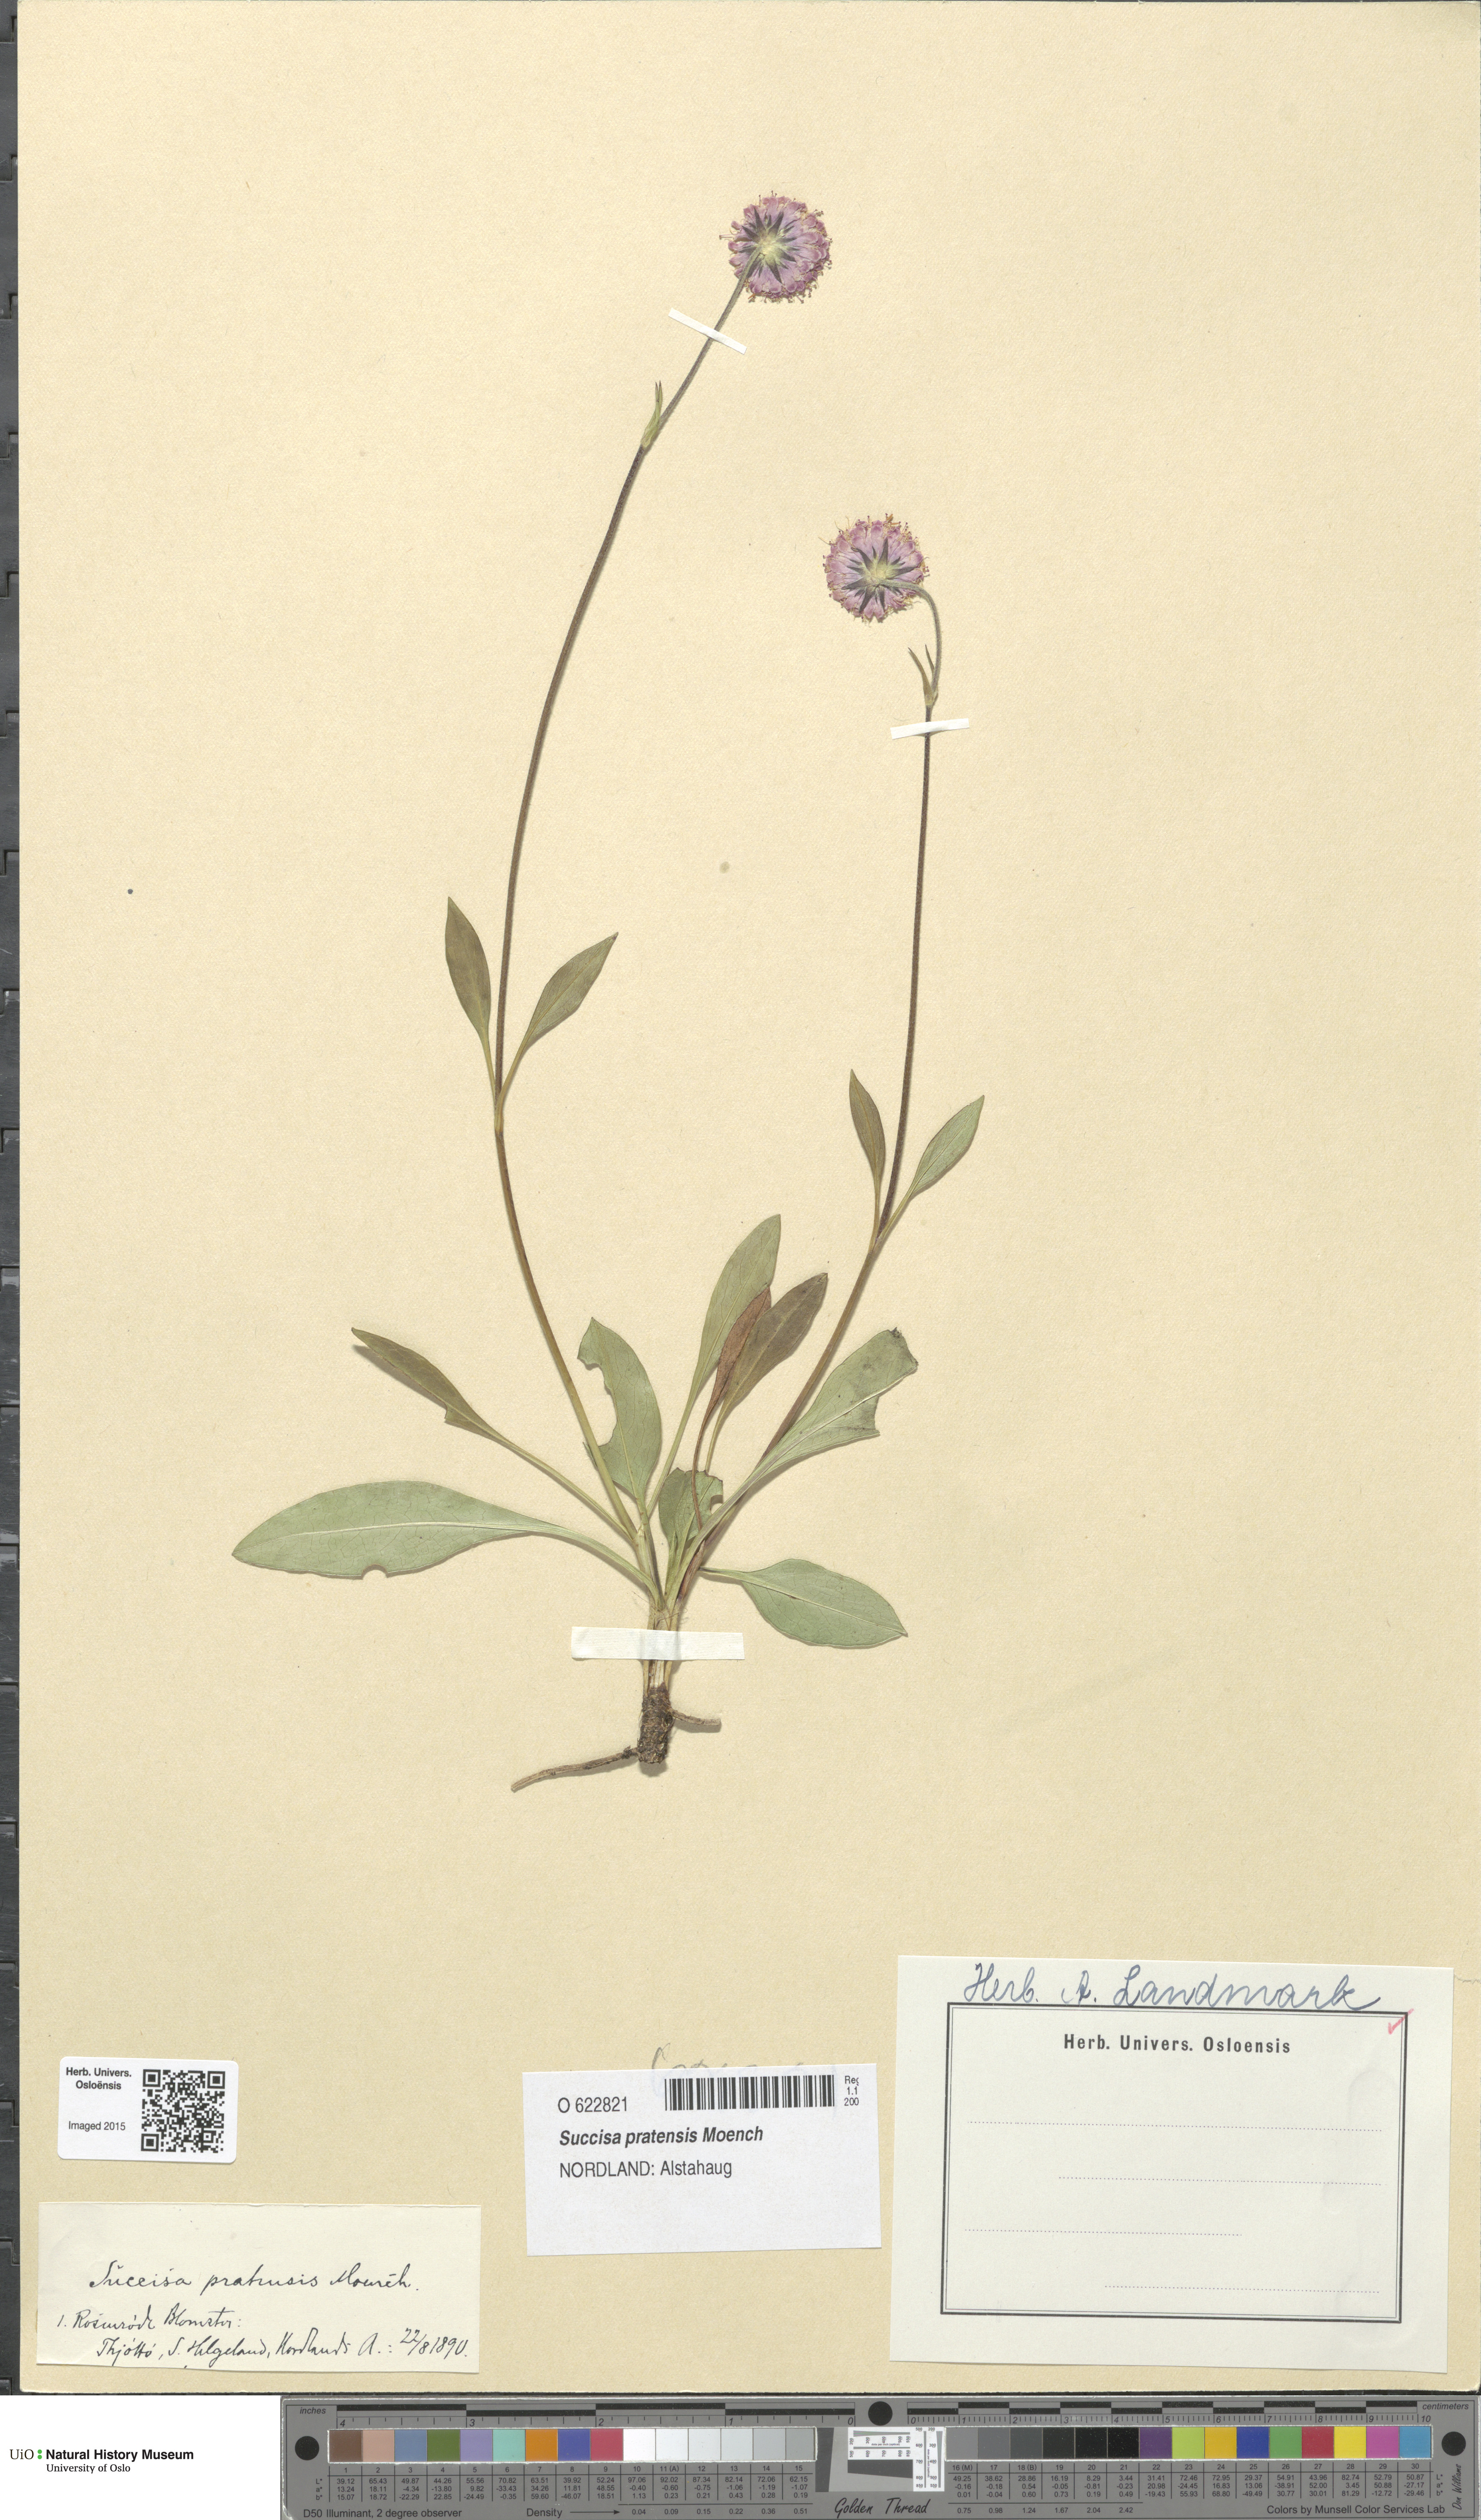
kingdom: Plantae
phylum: Tracheophyta
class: Magnoliopsida
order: Dipsacales
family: Caprifoliaceae
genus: Succisa
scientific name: Succisa pratensis
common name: Devil's-bit
